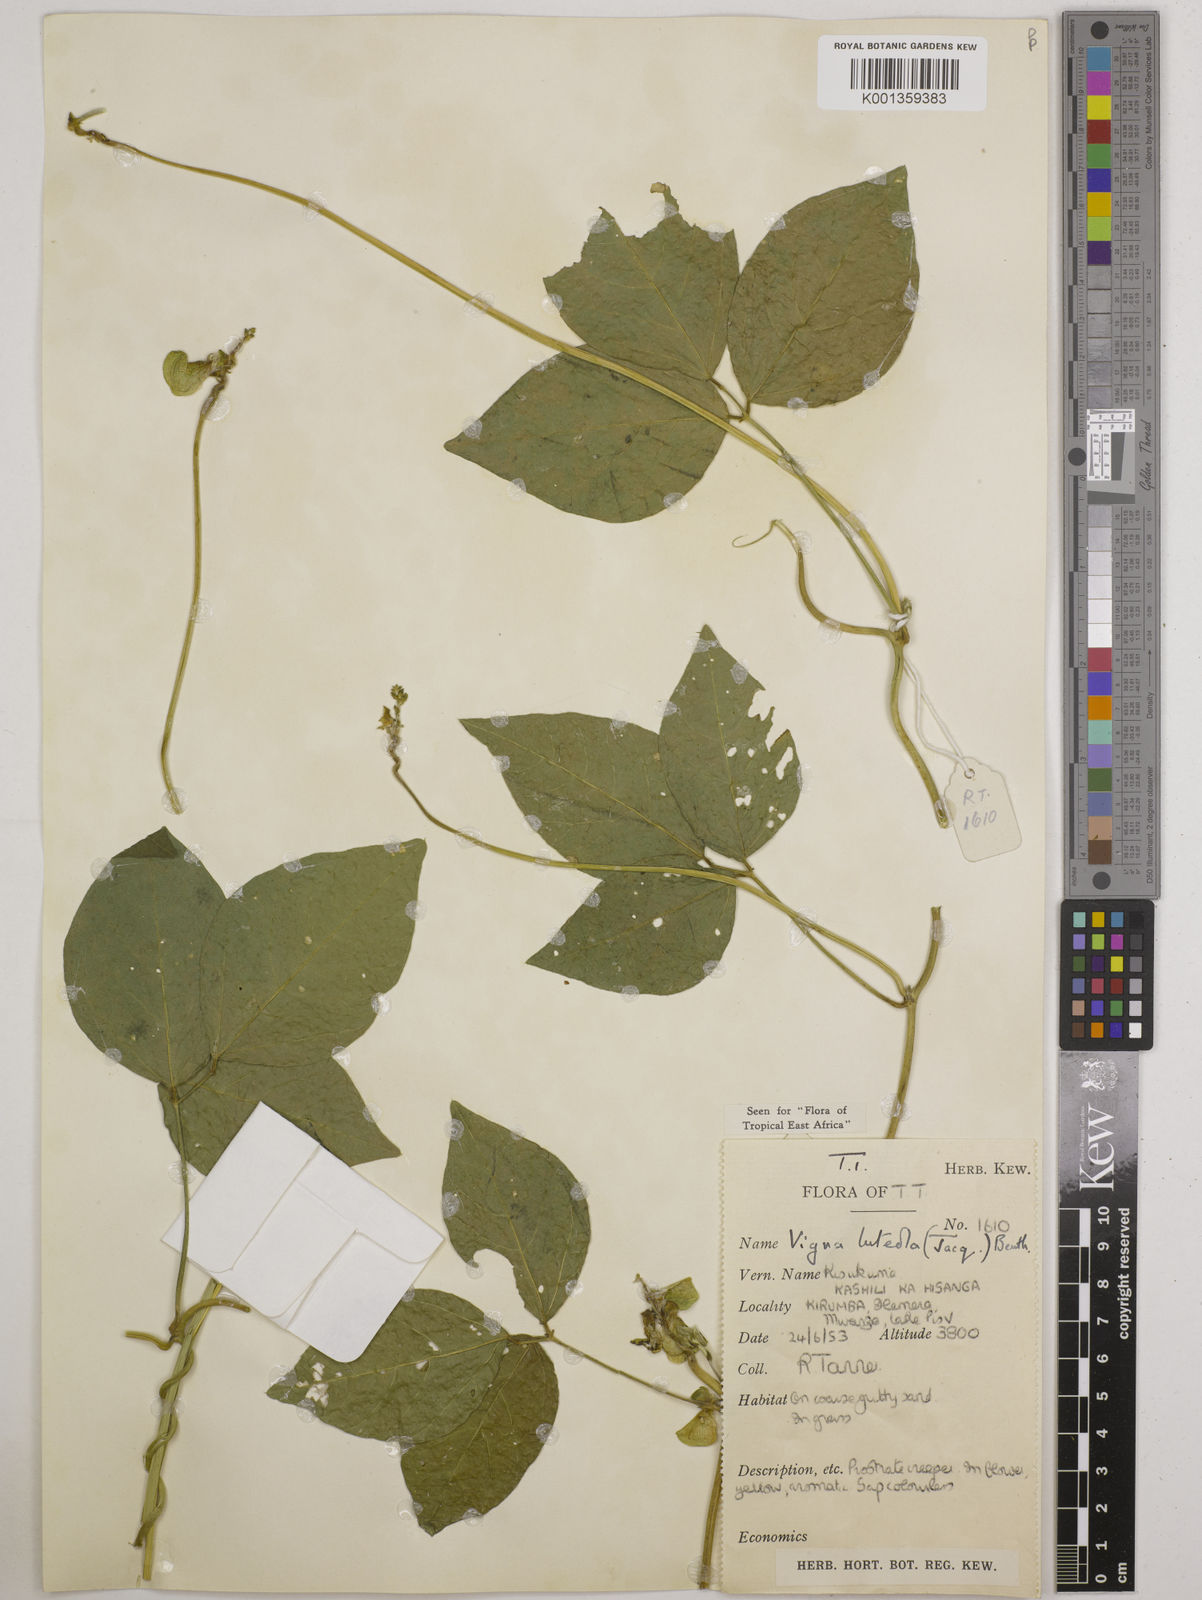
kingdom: Plantae
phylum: Tracheophyta
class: Magnoliopsida
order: Fabales
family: Fabaceae
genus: Vigna
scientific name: Vigna luteola
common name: Hairypod cowpea
